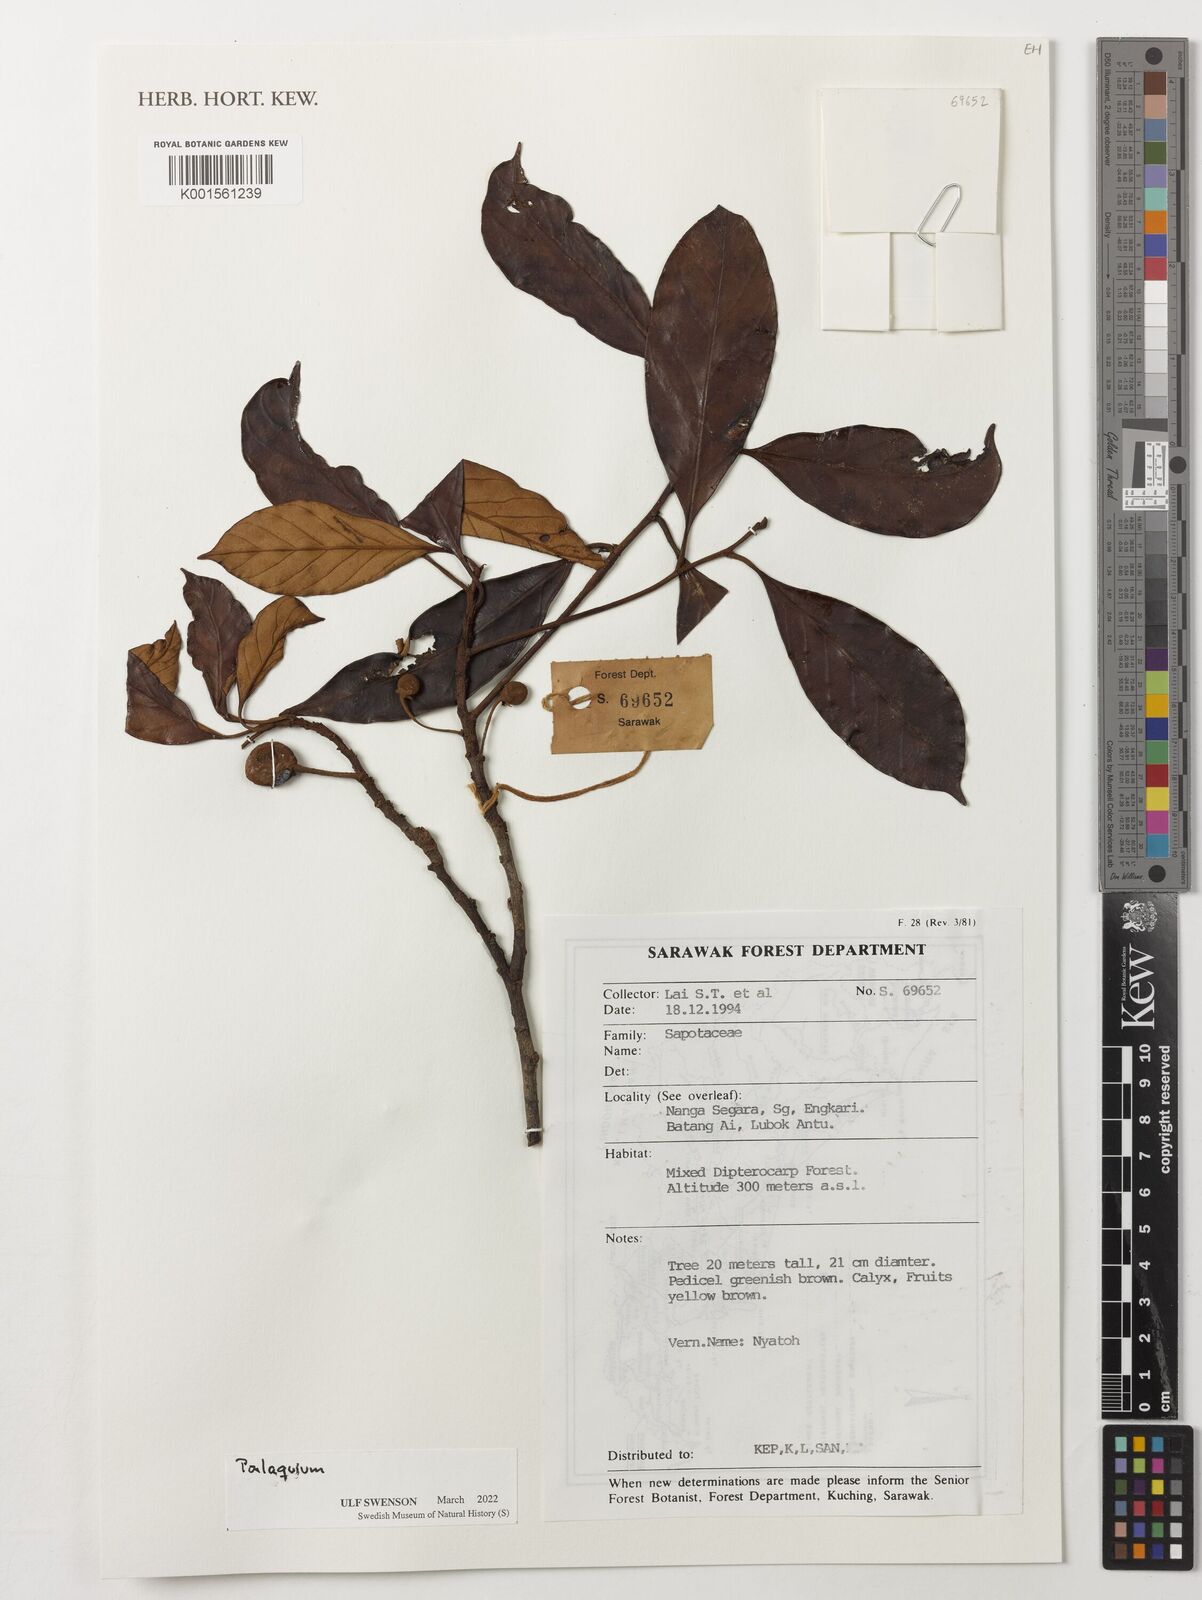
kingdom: Plantae
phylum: Tracheophyta
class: Magnoliopsida
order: Ericales
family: Sapotaceae
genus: Palaquium
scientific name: Palaquium
